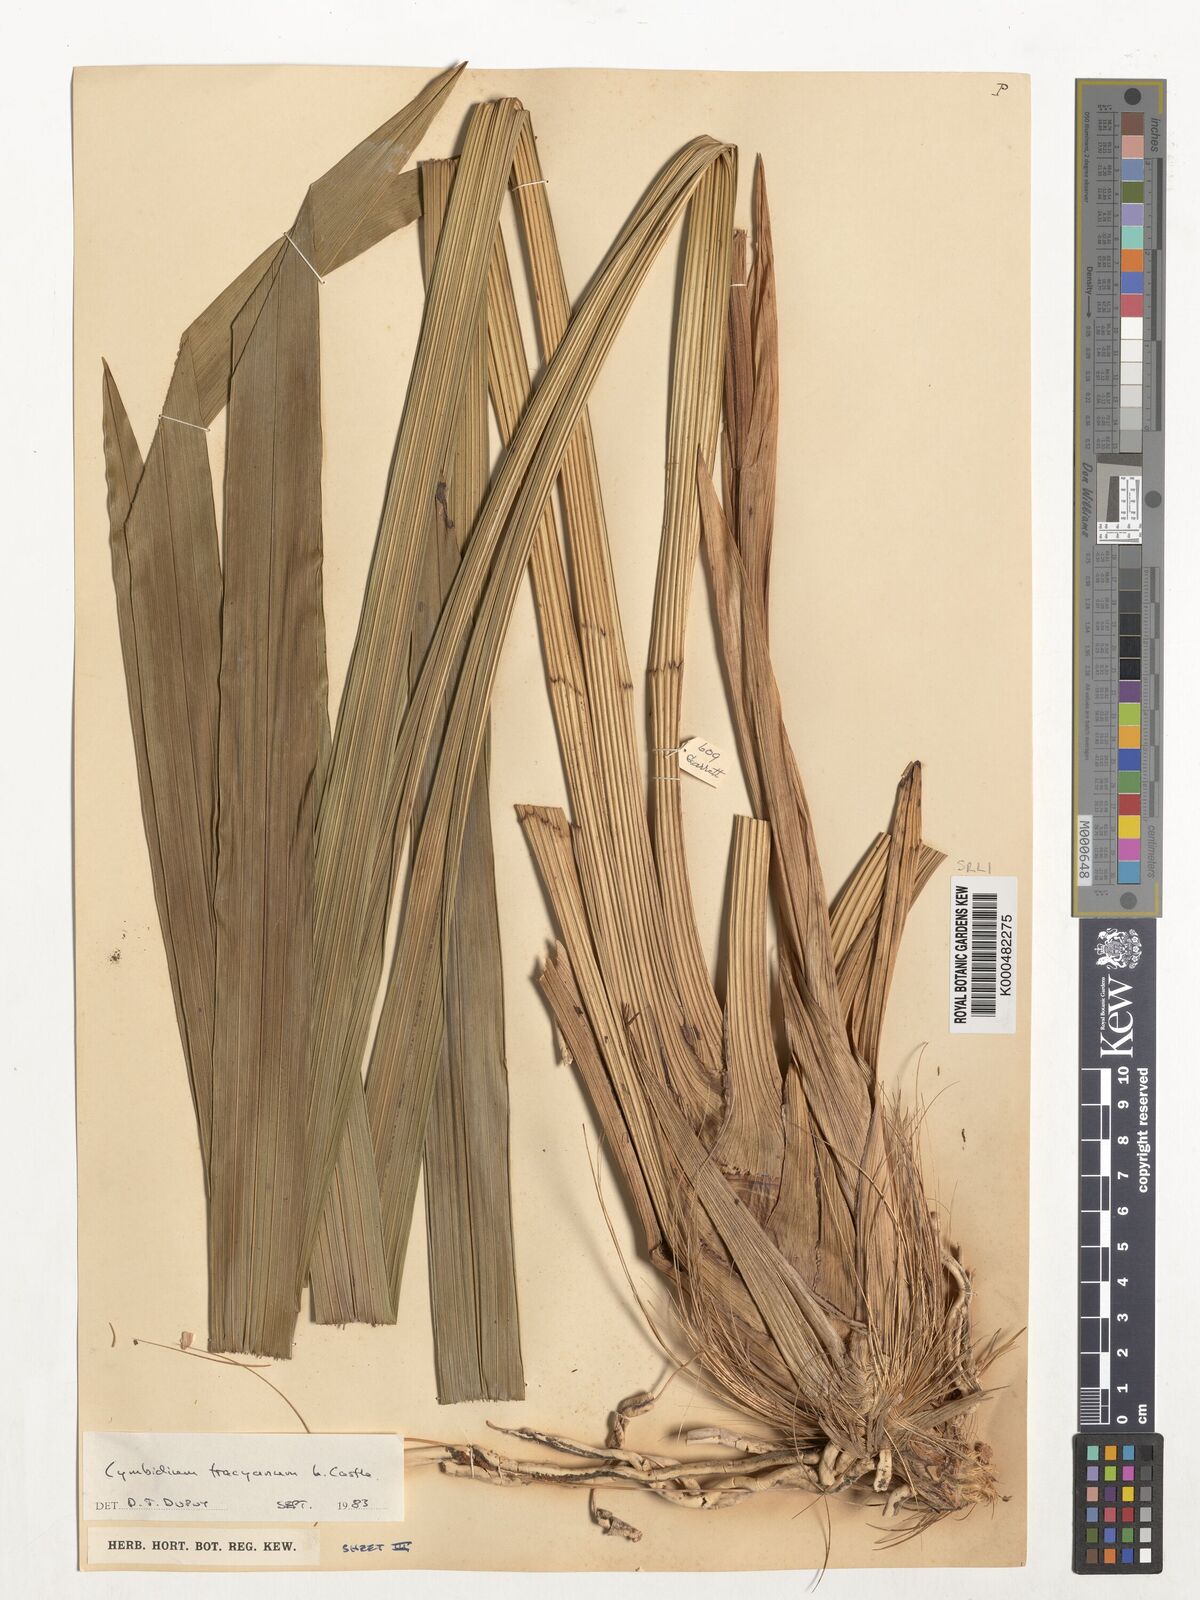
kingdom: Plantae
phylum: Tracheophyta
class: Liliopsida
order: Asparagales
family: Orchidaceae
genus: Cymbidium
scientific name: Cymbidium
